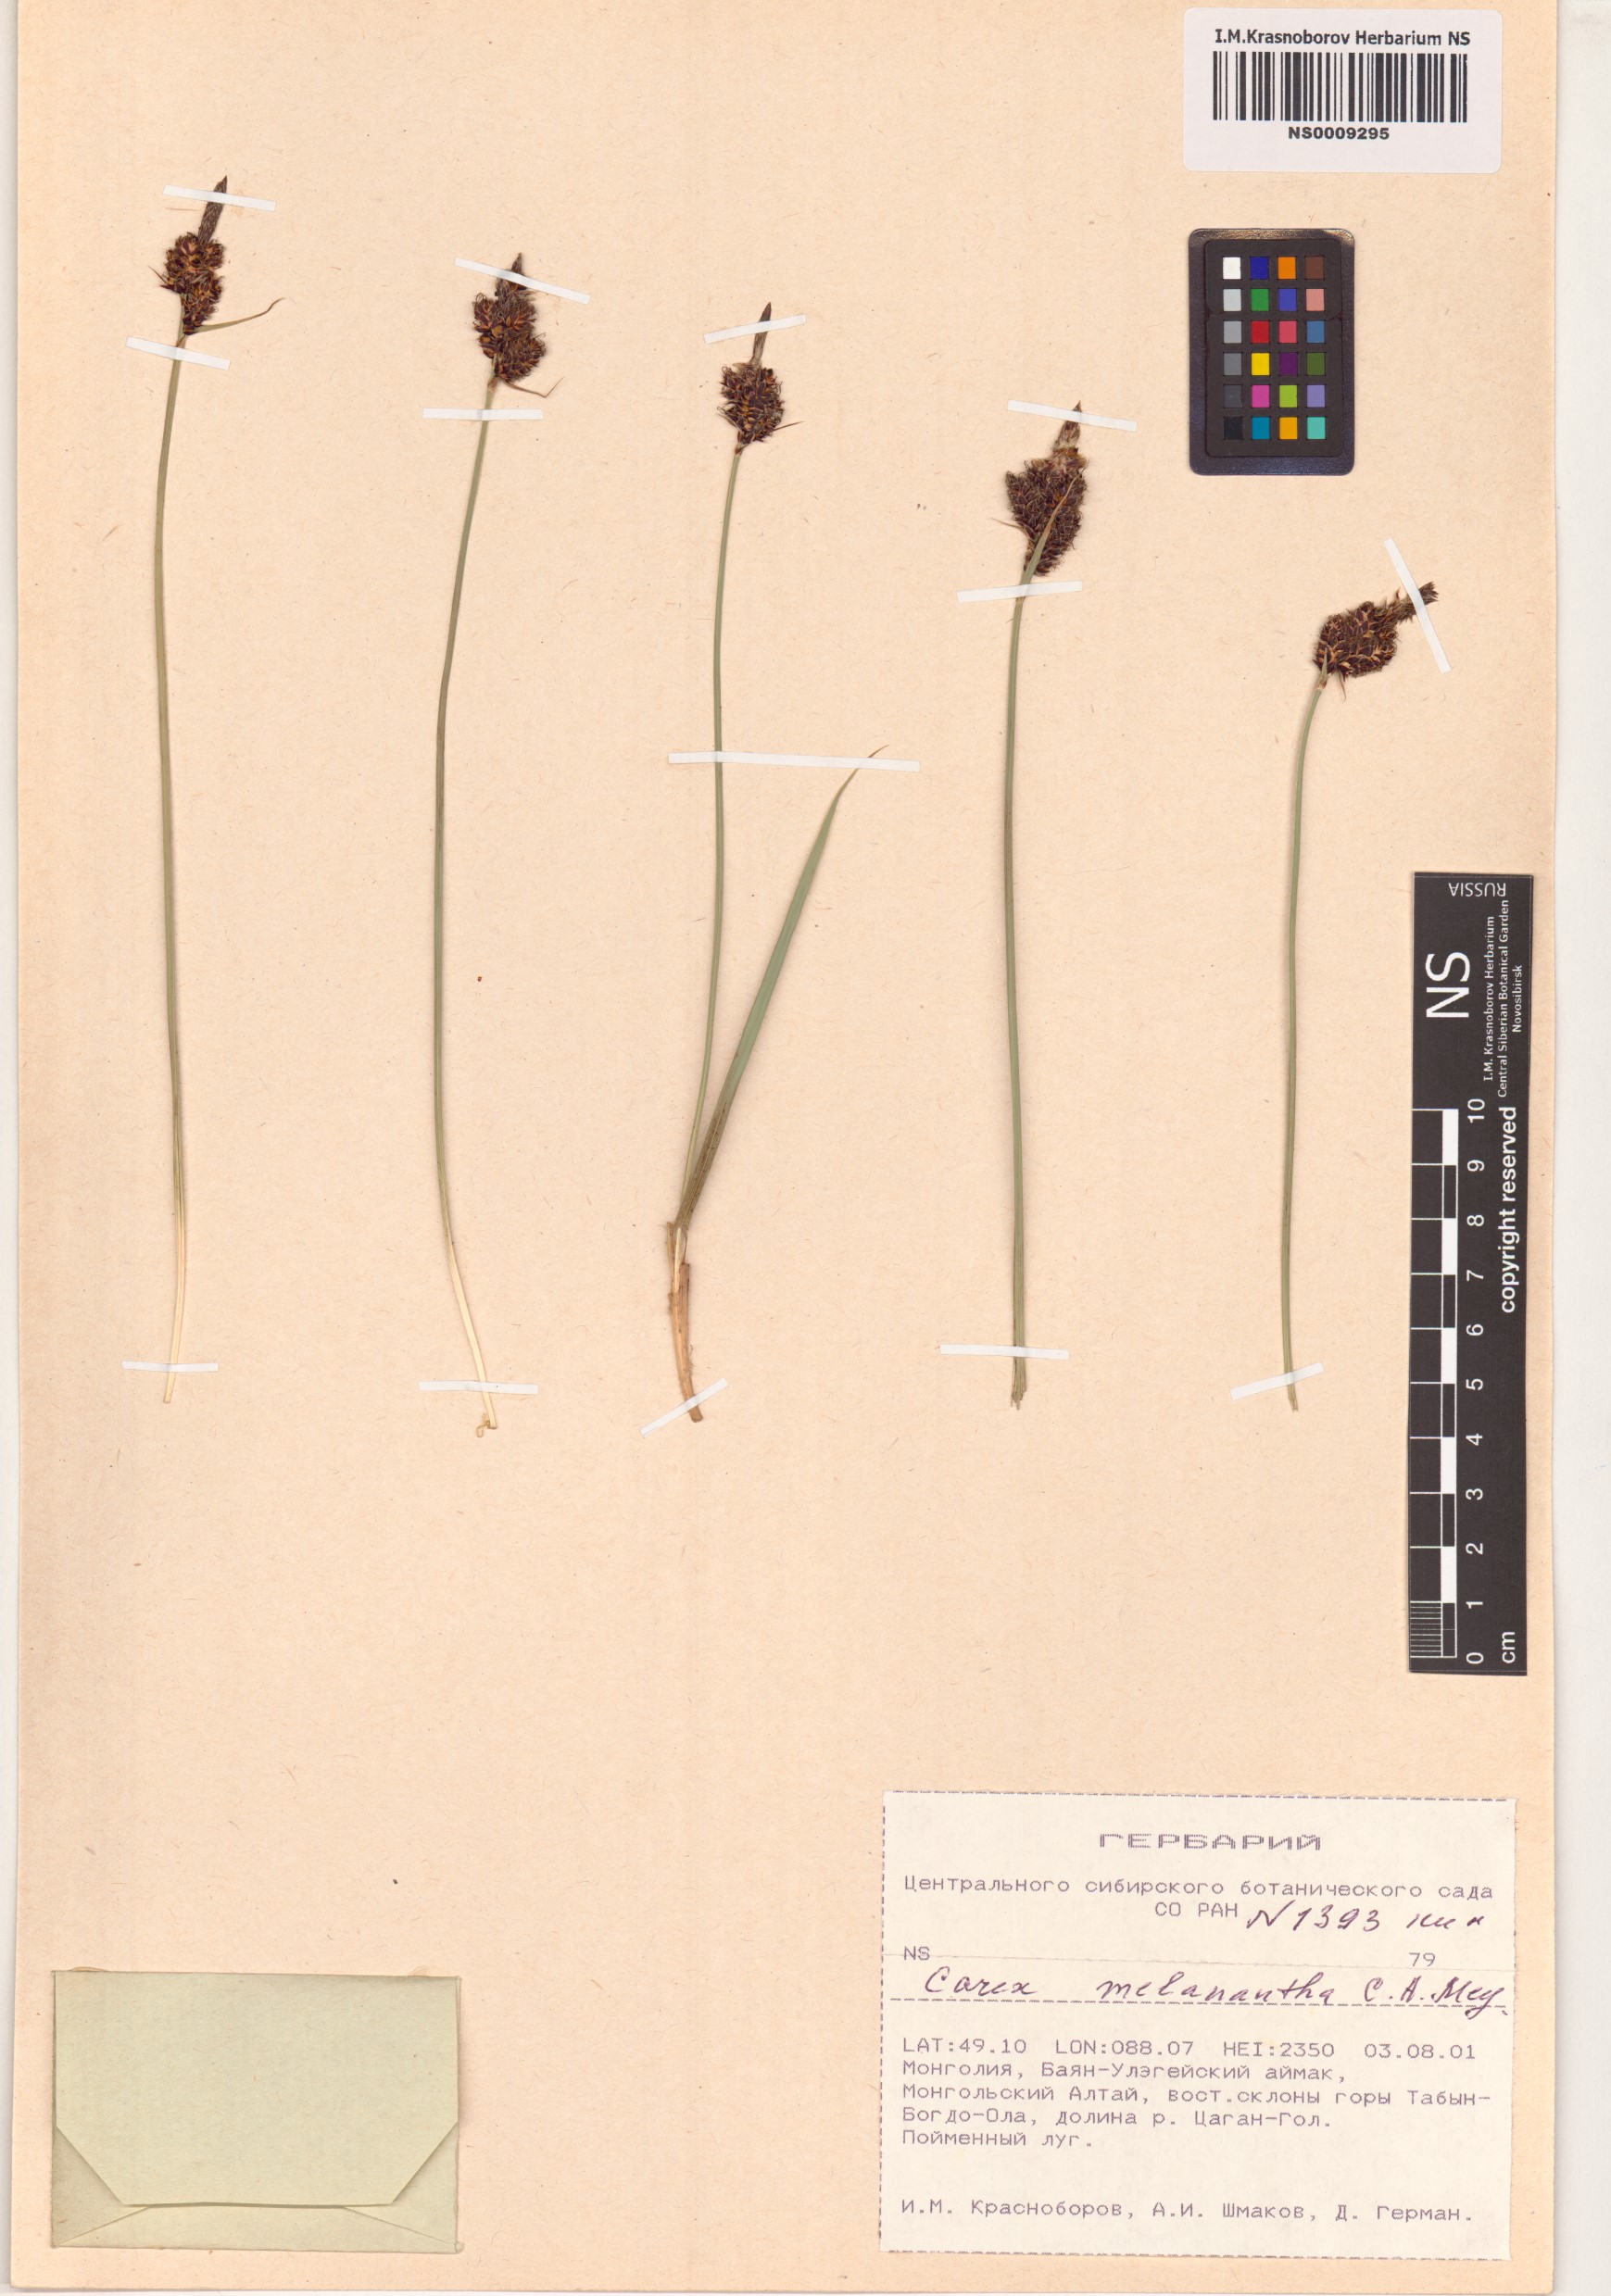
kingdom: Plantae
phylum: Tracheophyta
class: Liliopsida
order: Poales
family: Cyperaceae
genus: Carex
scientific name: Carex melanantha
